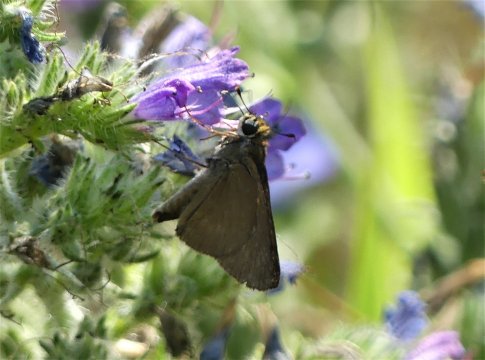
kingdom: Animalia
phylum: Arthropoda
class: Insecta
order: Lepidoptera
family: Hesperiidae
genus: Euphyes
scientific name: Euphyes vestris
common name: Dun Skipper
